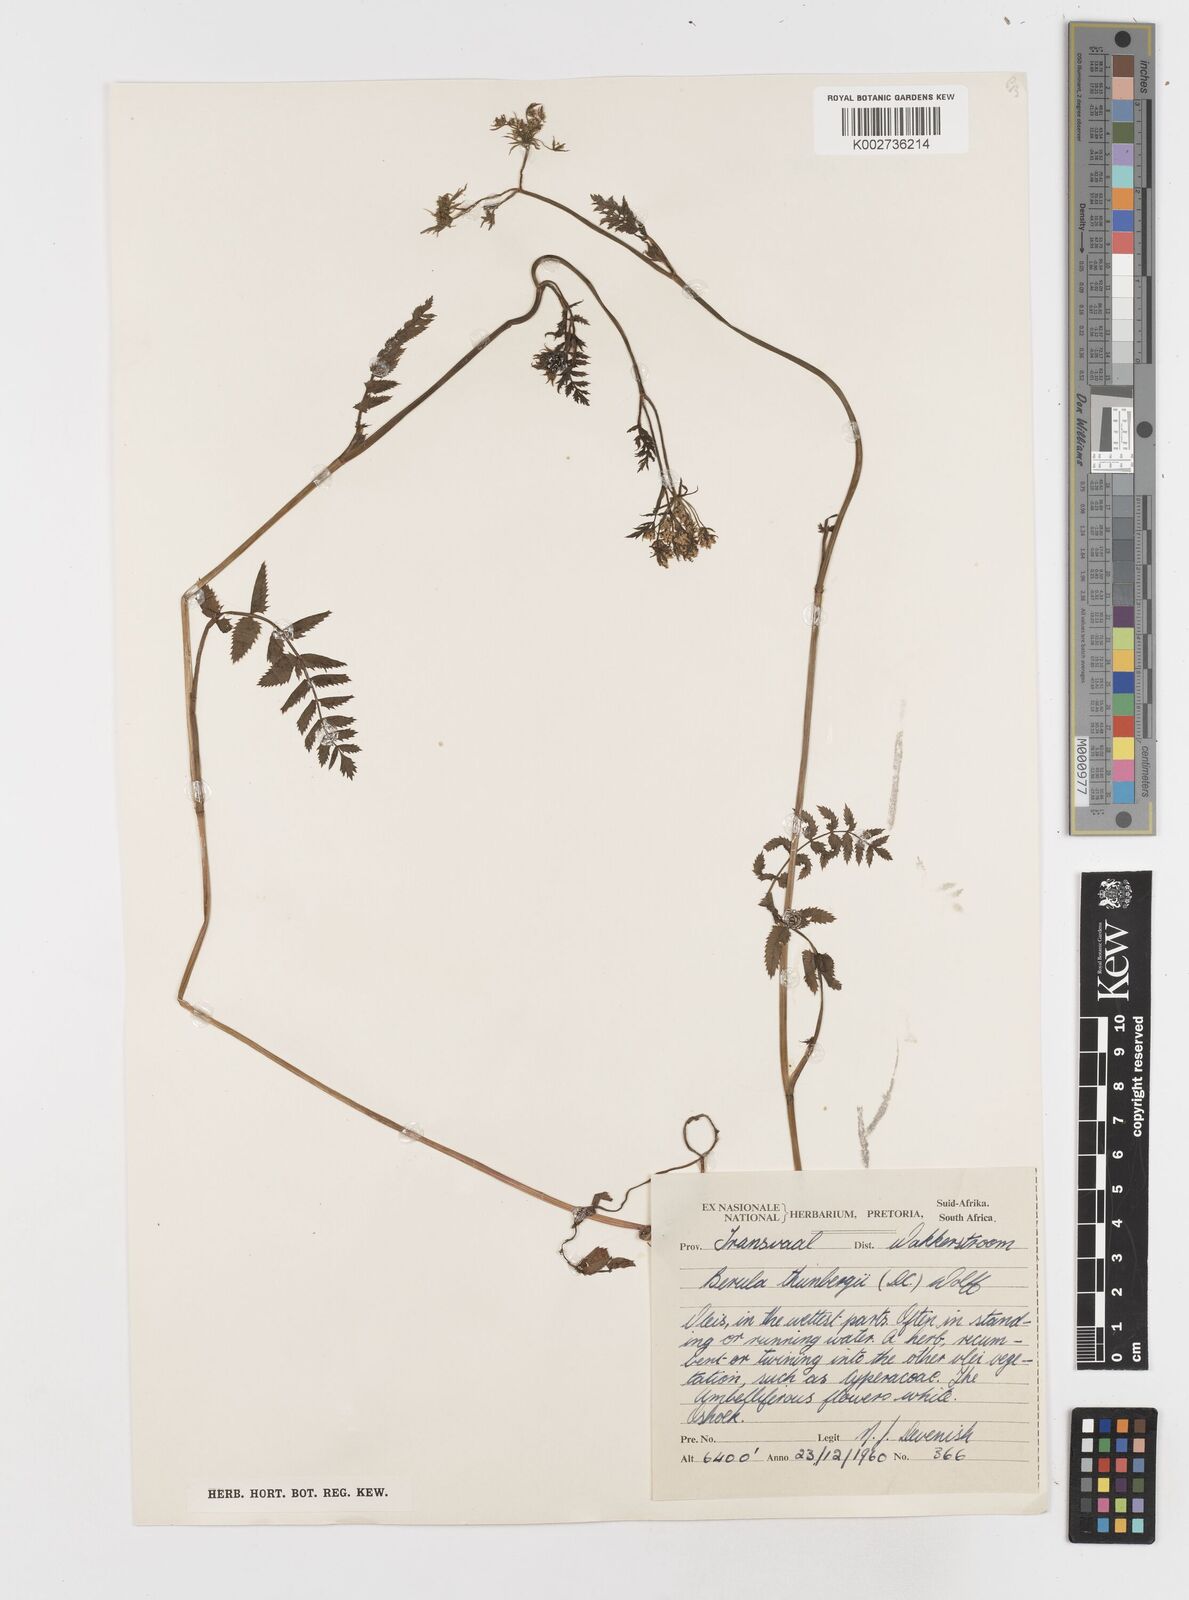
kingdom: Plantae
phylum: Tracheophyta
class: Magnoliopsida
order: Apiales
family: Apiaceae
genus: Berula
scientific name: Berula erecta
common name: Lesser water-parsnip
